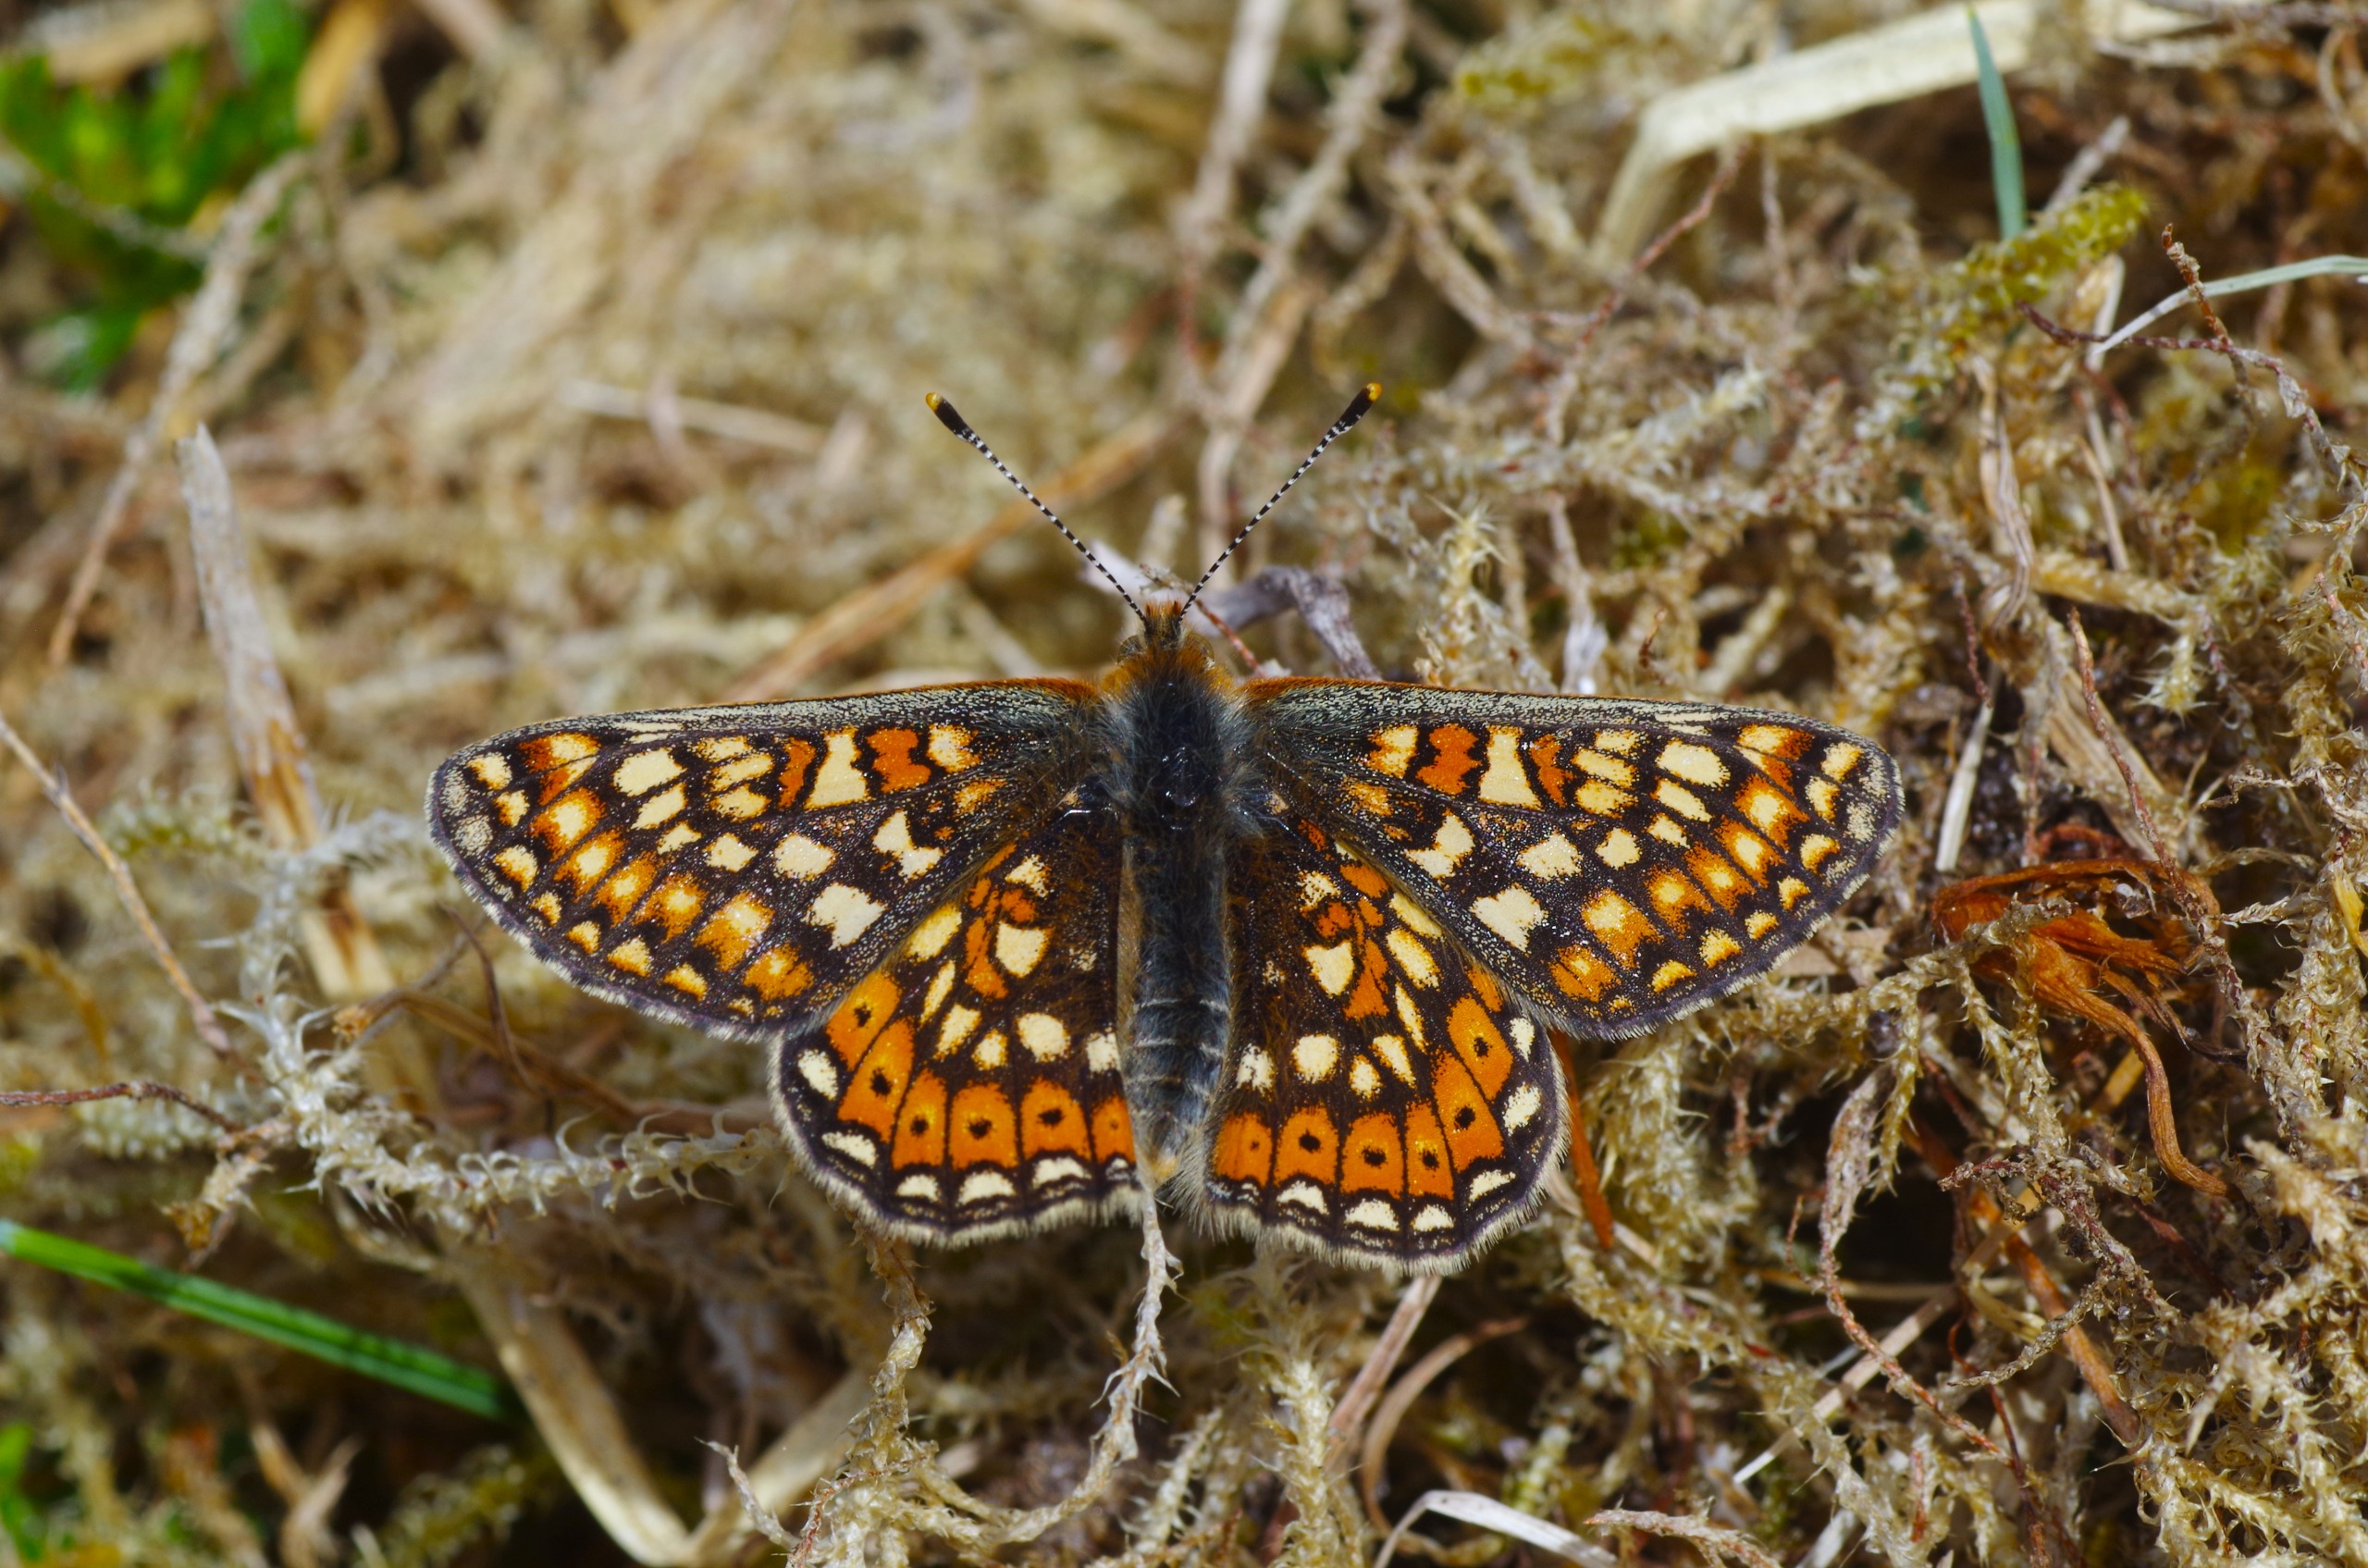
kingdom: Animalia
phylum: Arthropoda
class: Insecta
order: Lepidoptera
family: Nymphalidae
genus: Euphydryas
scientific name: Euphydryas aurinia
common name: Hedepletvinge
